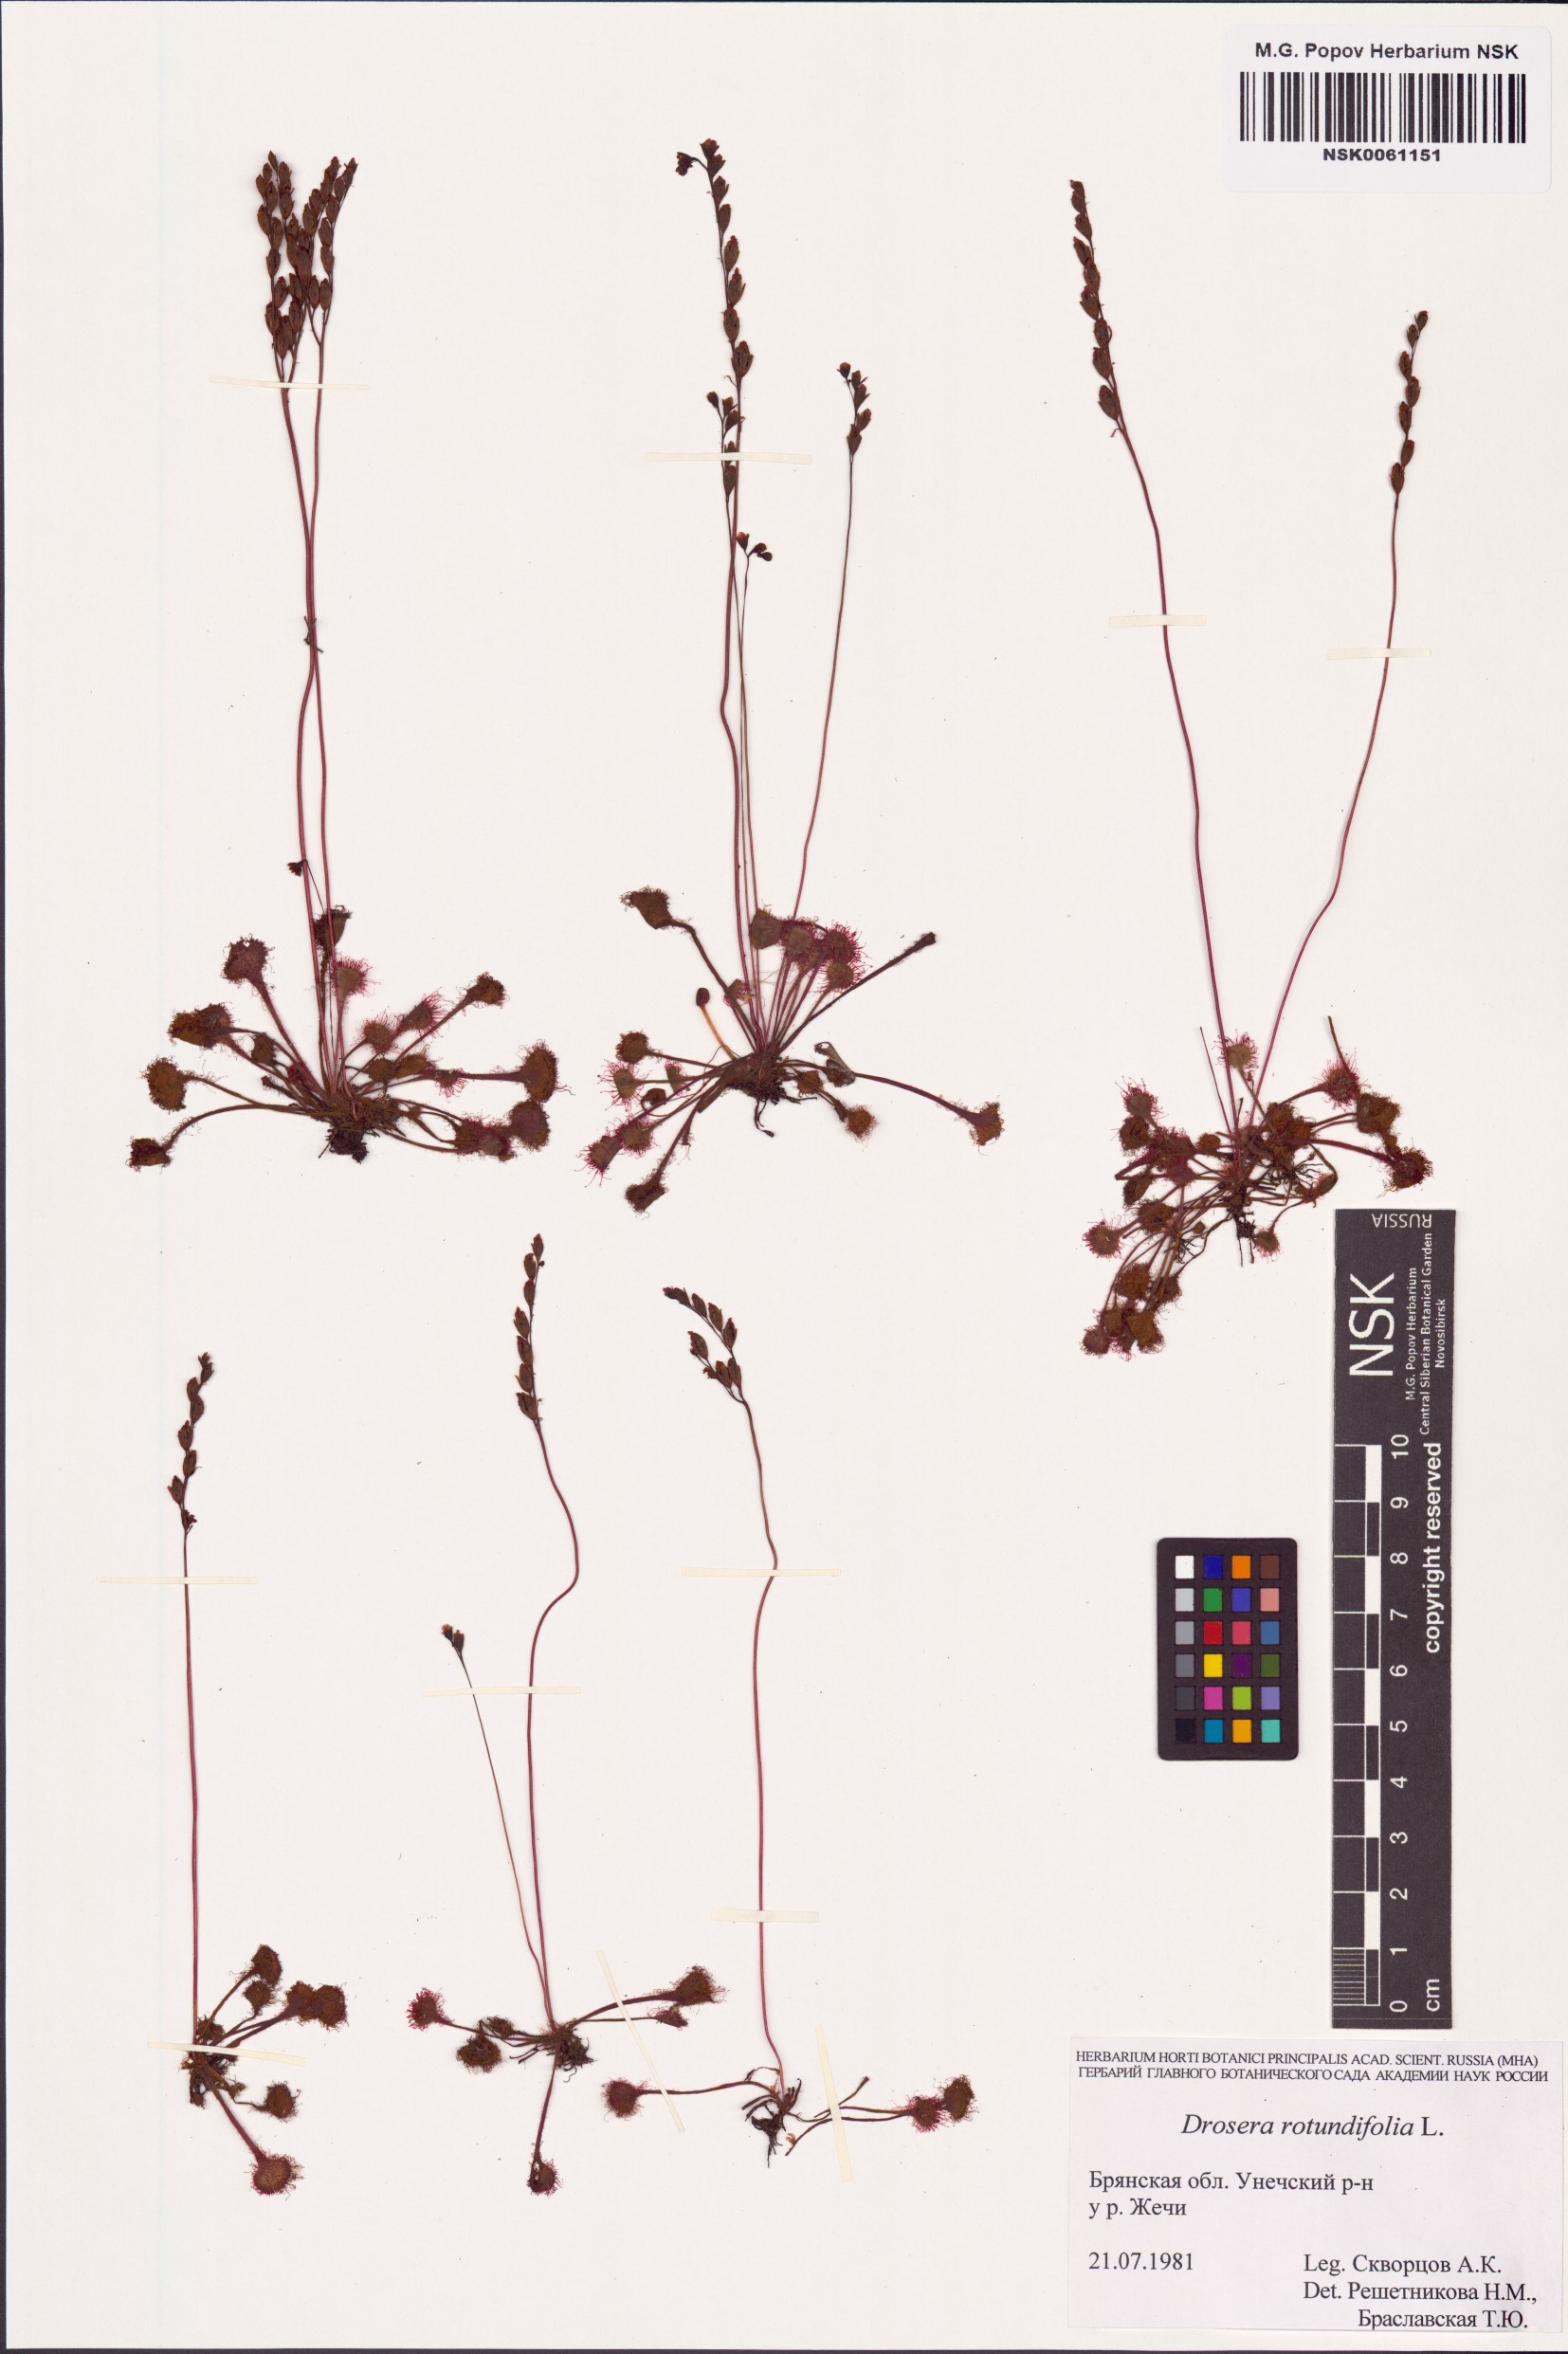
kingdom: Plantae
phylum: Tracheophyta
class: Magnoliopsida
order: Caryophyllales
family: Droseraceae
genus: Drosera
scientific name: Drosera rotundifolia
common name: Round-leaved sundew
